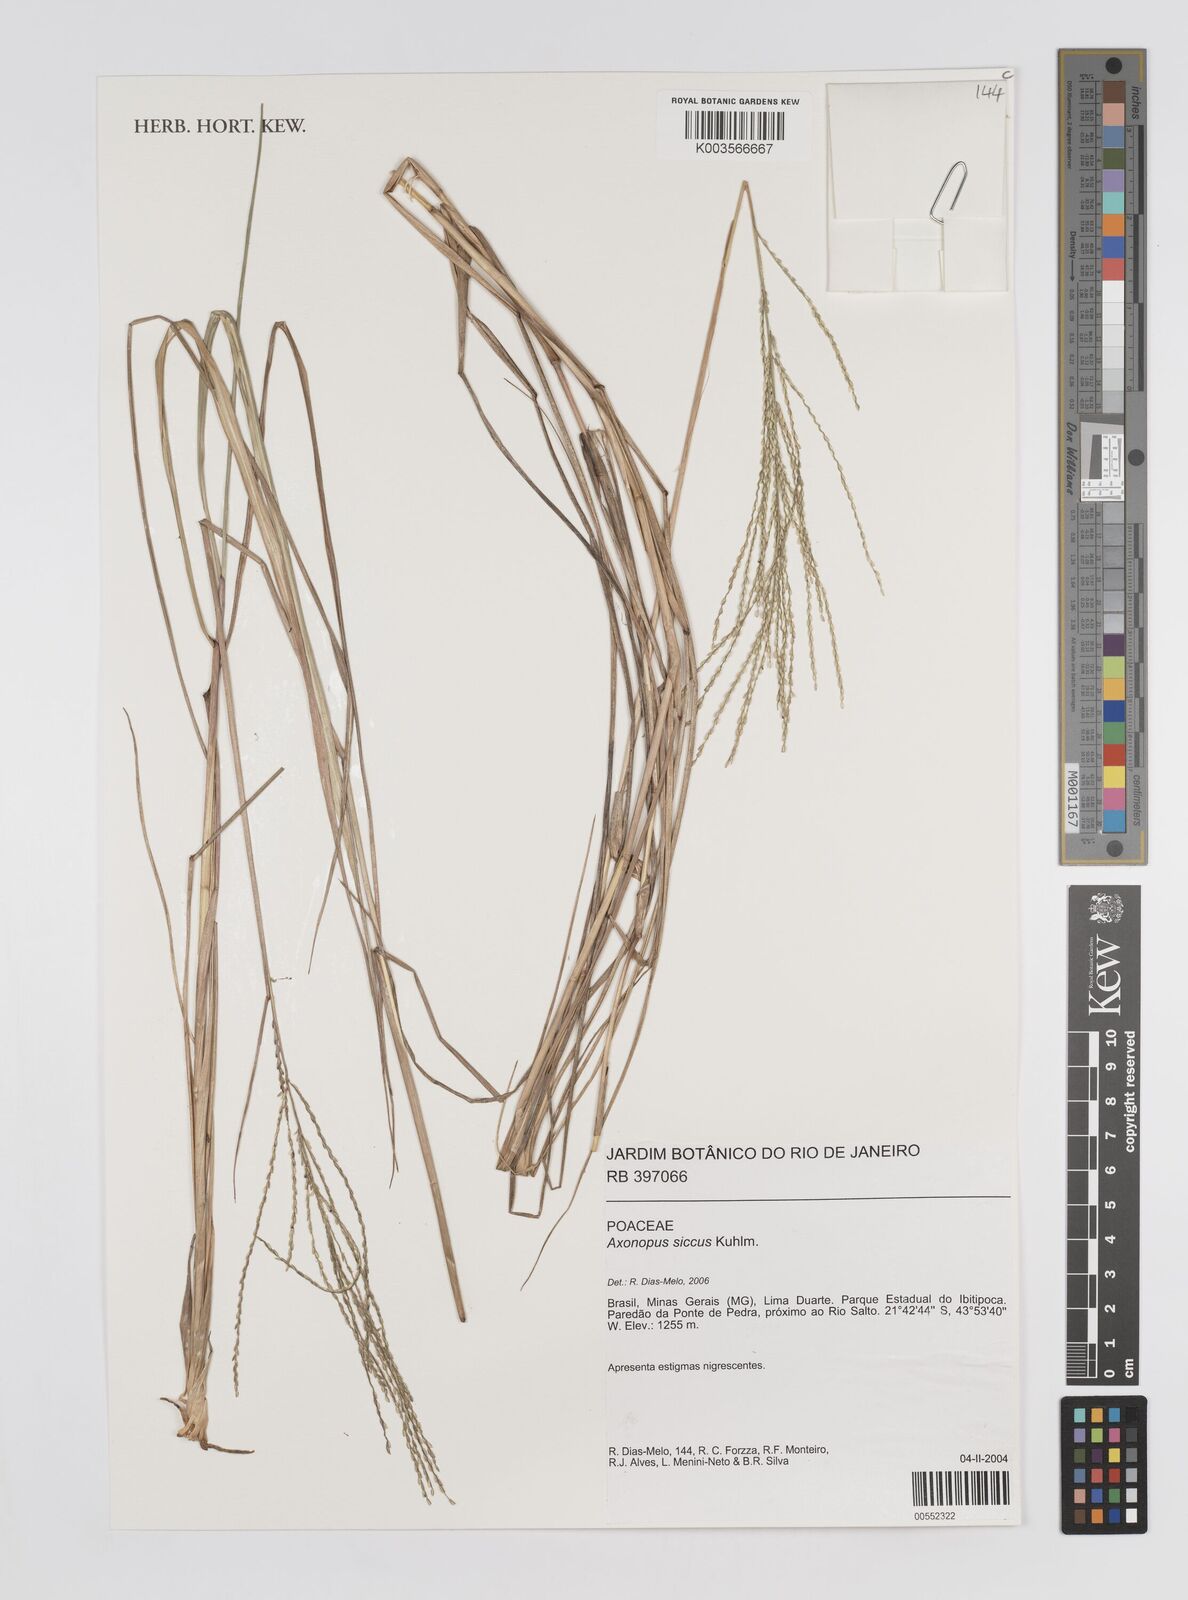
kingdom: Plantae
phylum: Tracheophyta
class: Liliopsida
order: Poales
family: Poaceae
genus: Axonopus
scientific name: Axonopus siccus
